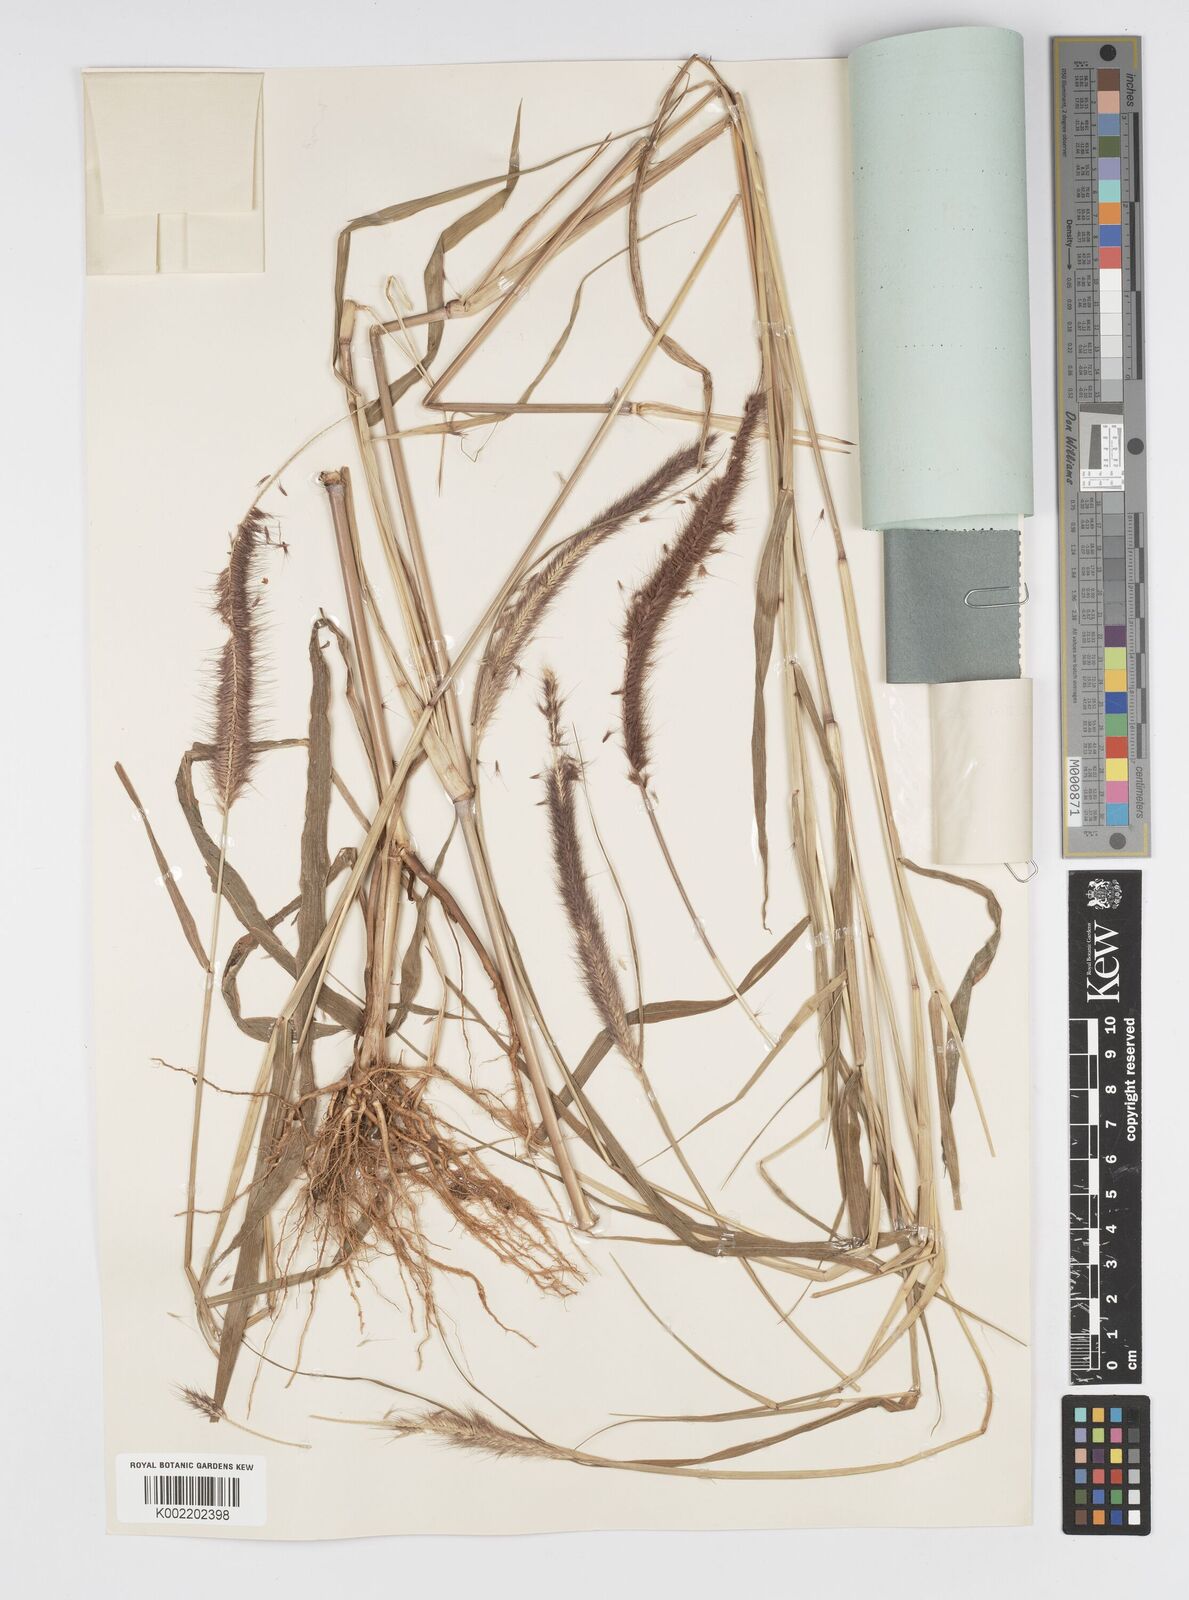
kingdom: Plantae
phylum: Tracheophyta
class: Liliopsida
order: Poales
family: Poaceae
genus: Setaria
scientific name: Setaria parviflora
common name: Knotroot bristle-grass
